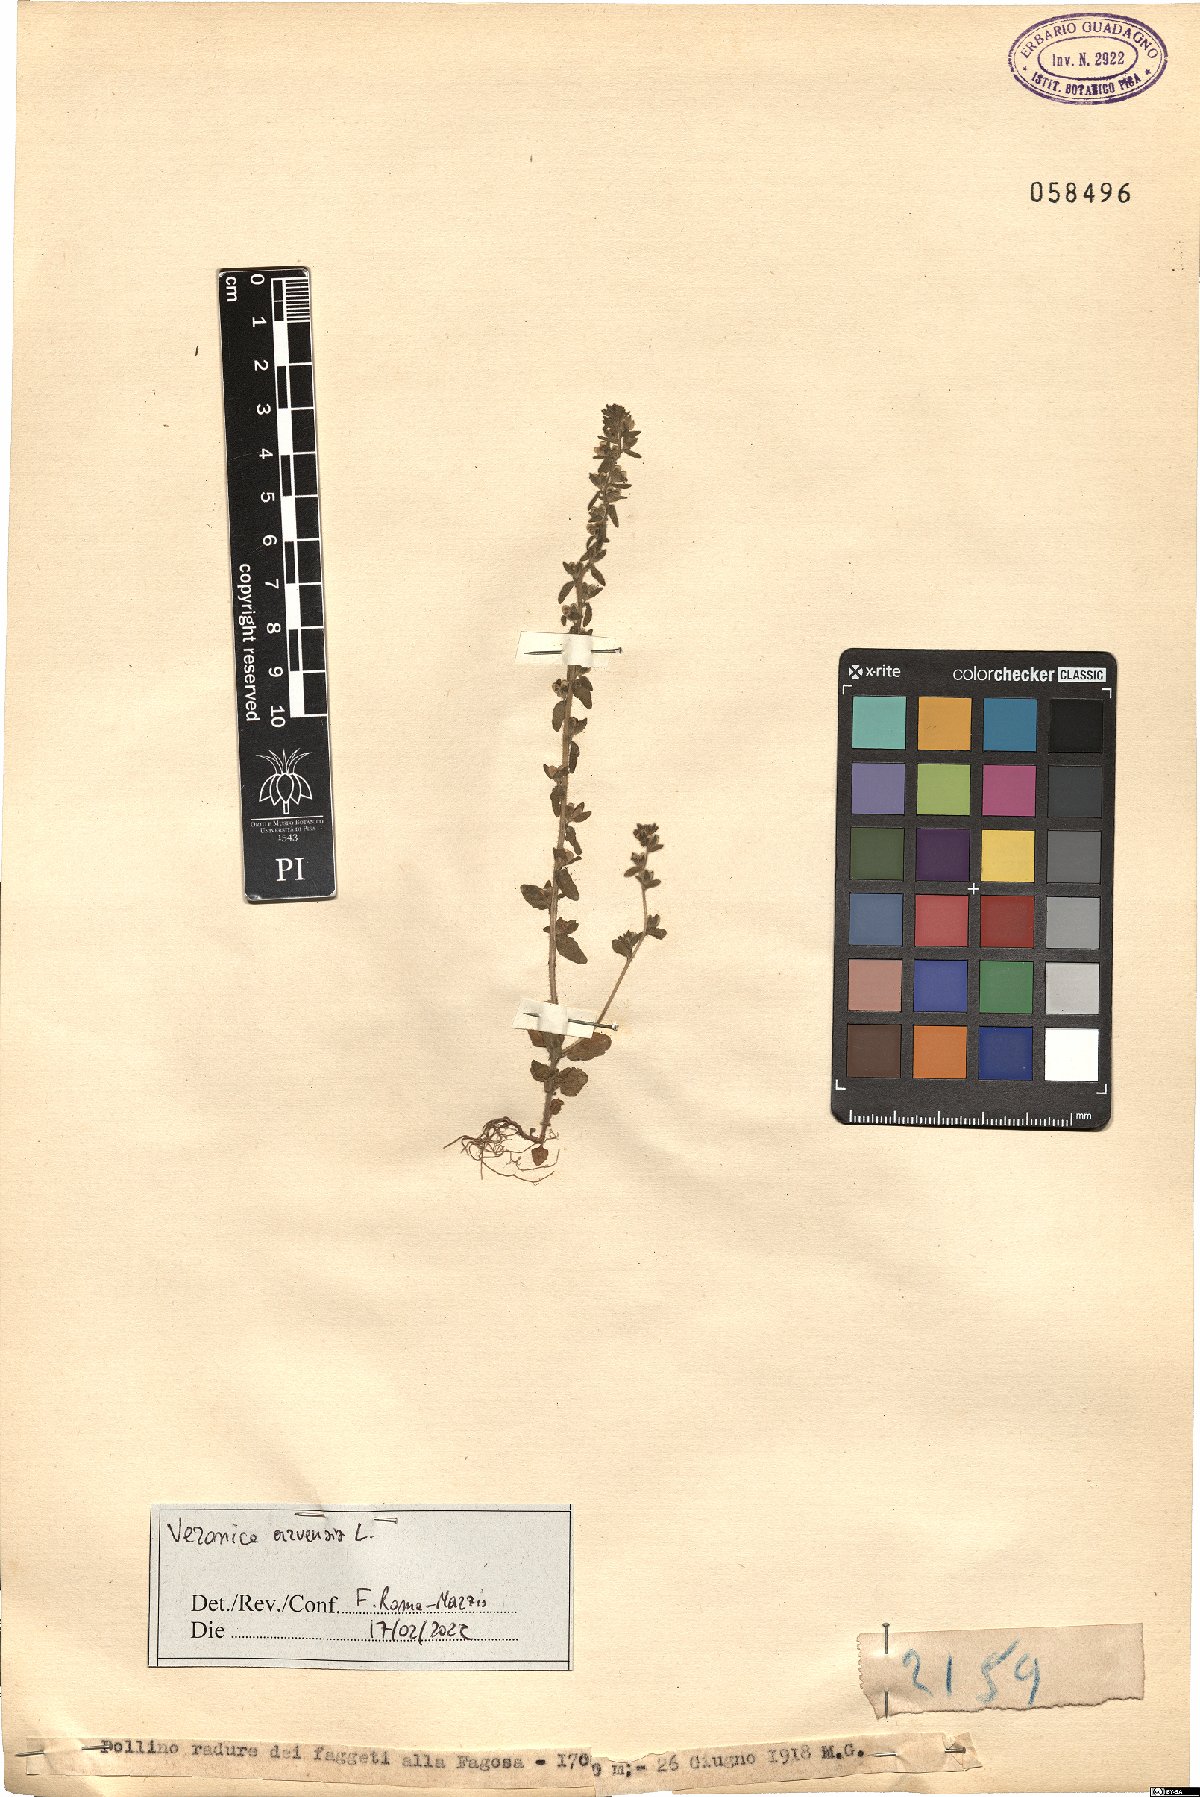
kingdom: Plantae
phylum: Tracheophyta
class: Magnoliopsida
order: Lamiales
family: Plantaginaceae
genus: Veronica
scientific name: Veronica arvensis
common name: Corn speedwell
